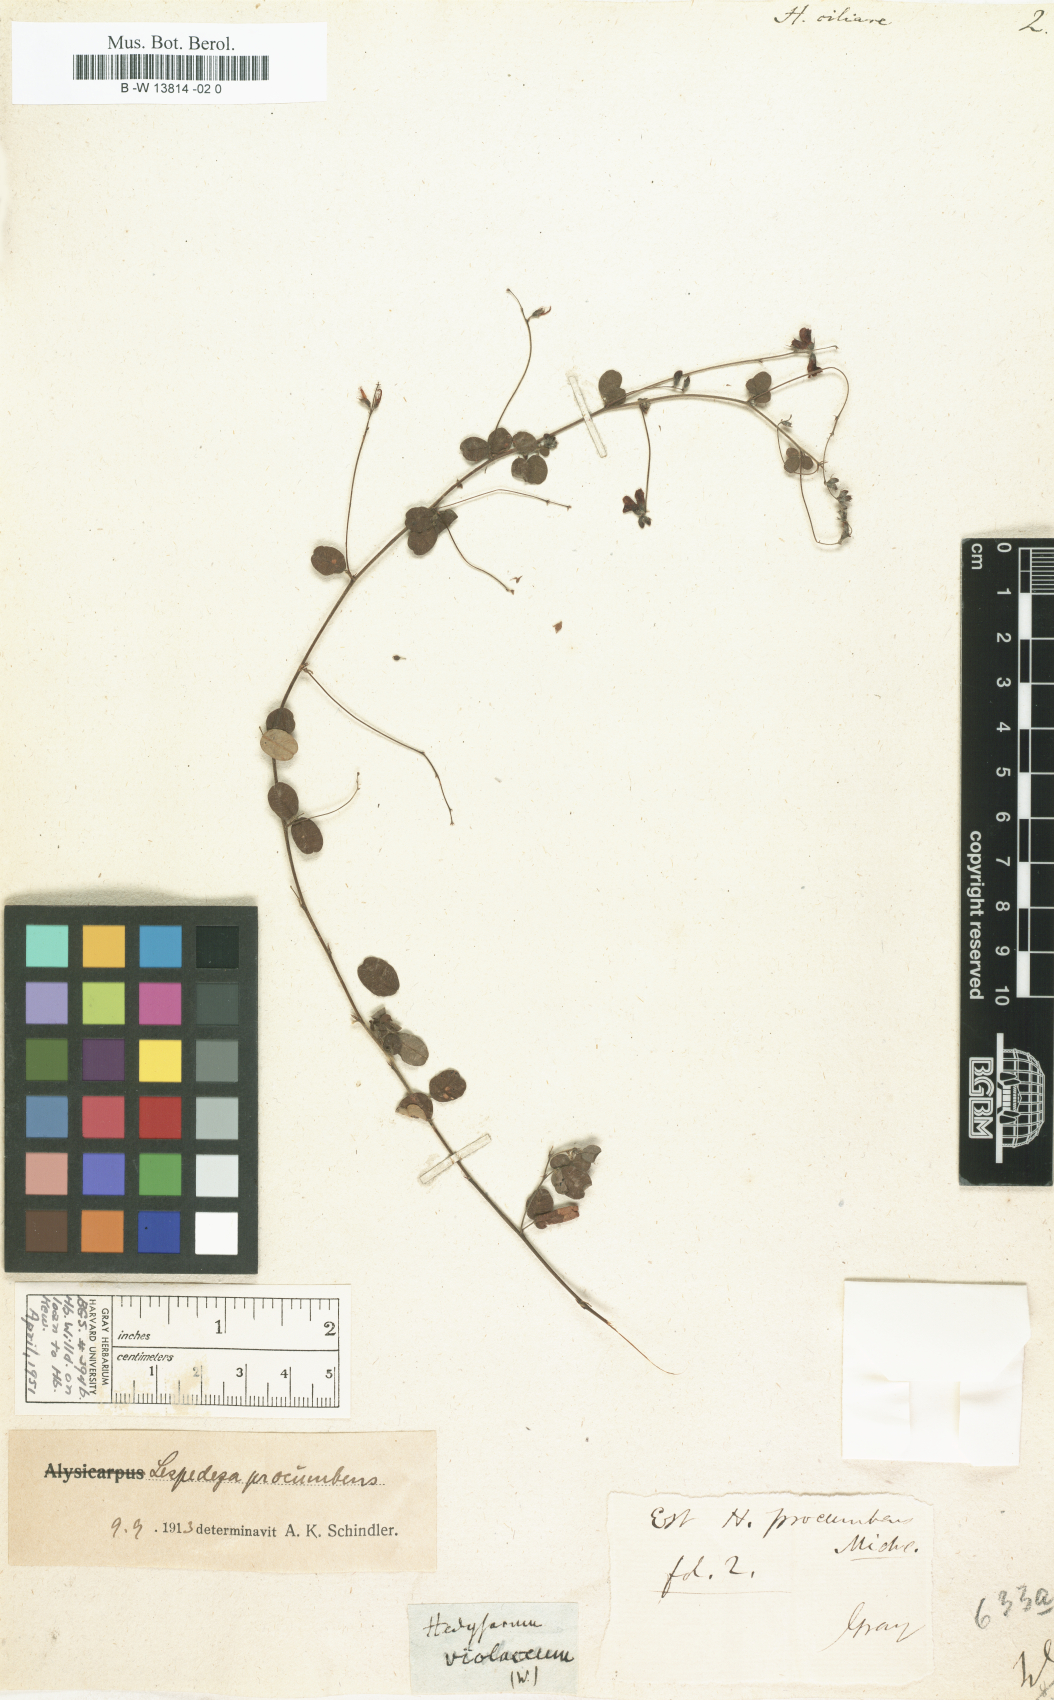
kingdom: Plantae
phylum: Tracheophyta
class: Magnoliopsida
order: Fabales
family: Fabaceae
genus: Desmodium
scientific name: Desmodium ciliare
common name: Hairy small-leaf ticktrefoil
